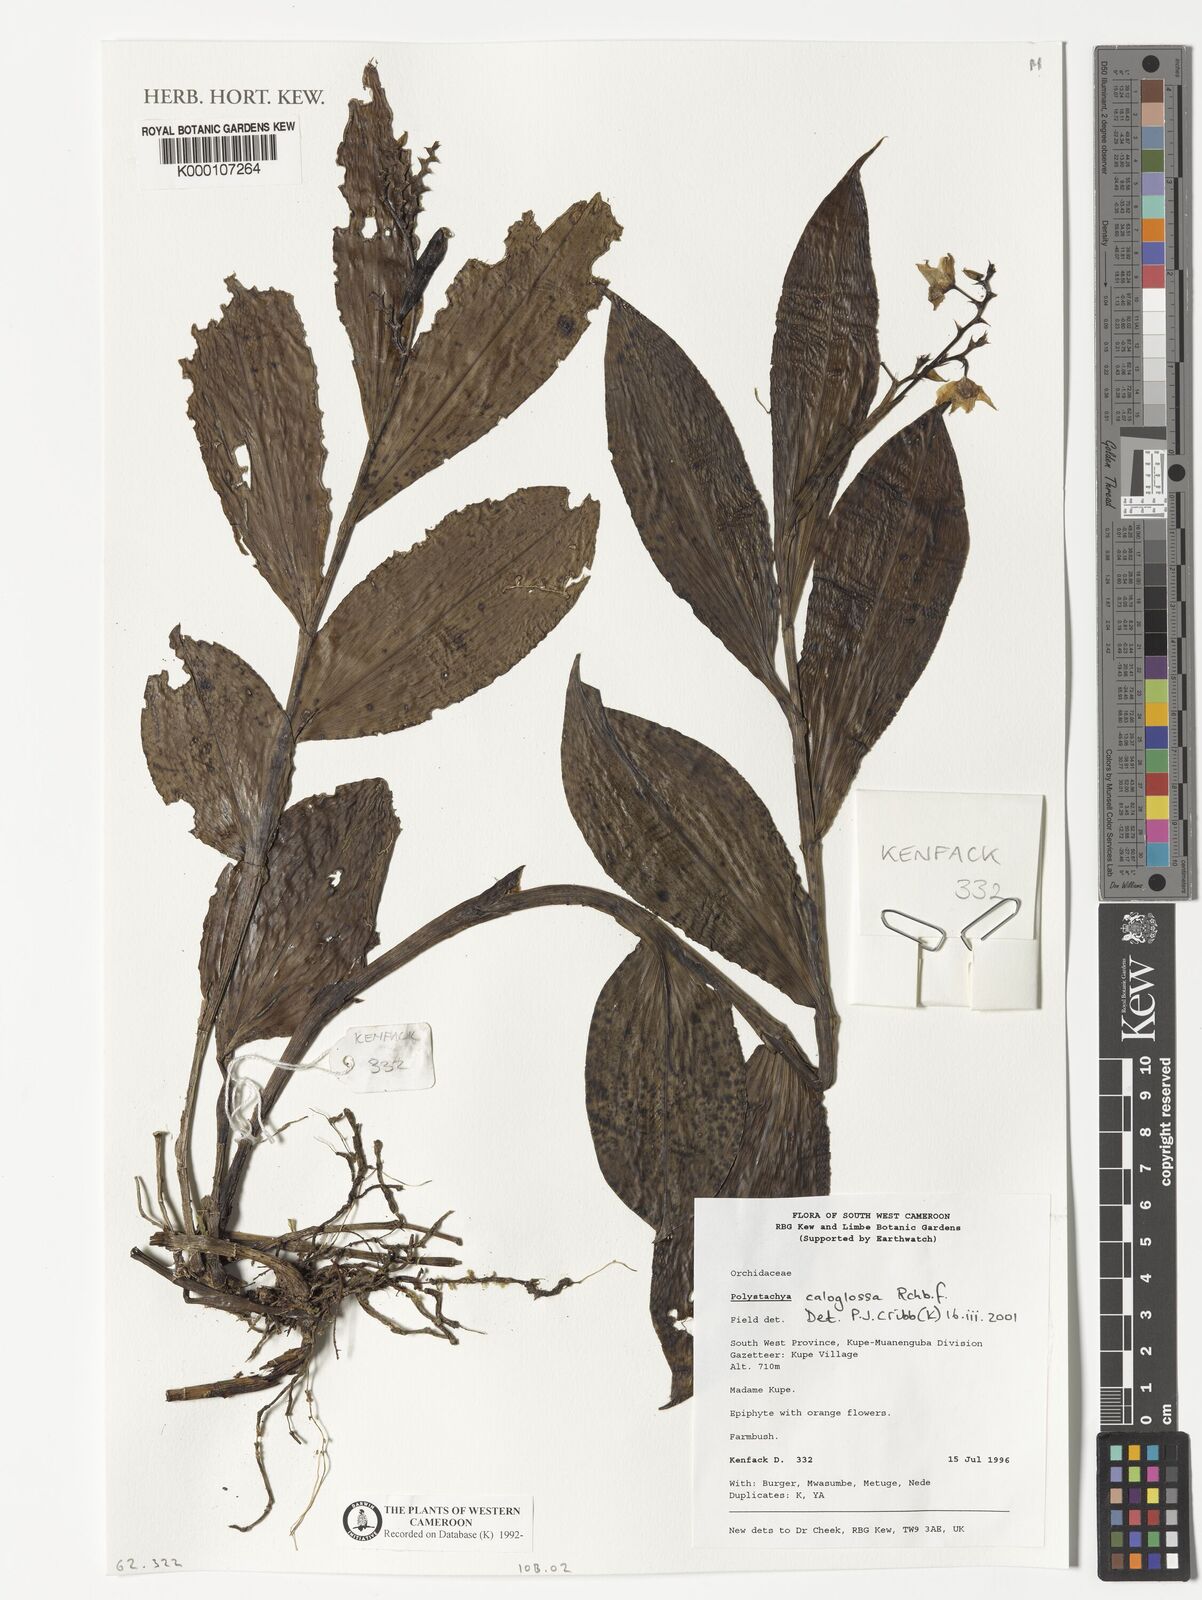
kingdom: Plantae
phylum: Tracheophyta
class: Liliopsida
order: Asparagales
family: Orchidaceae
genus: Polystachya
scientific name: Polystachya caloglossa
